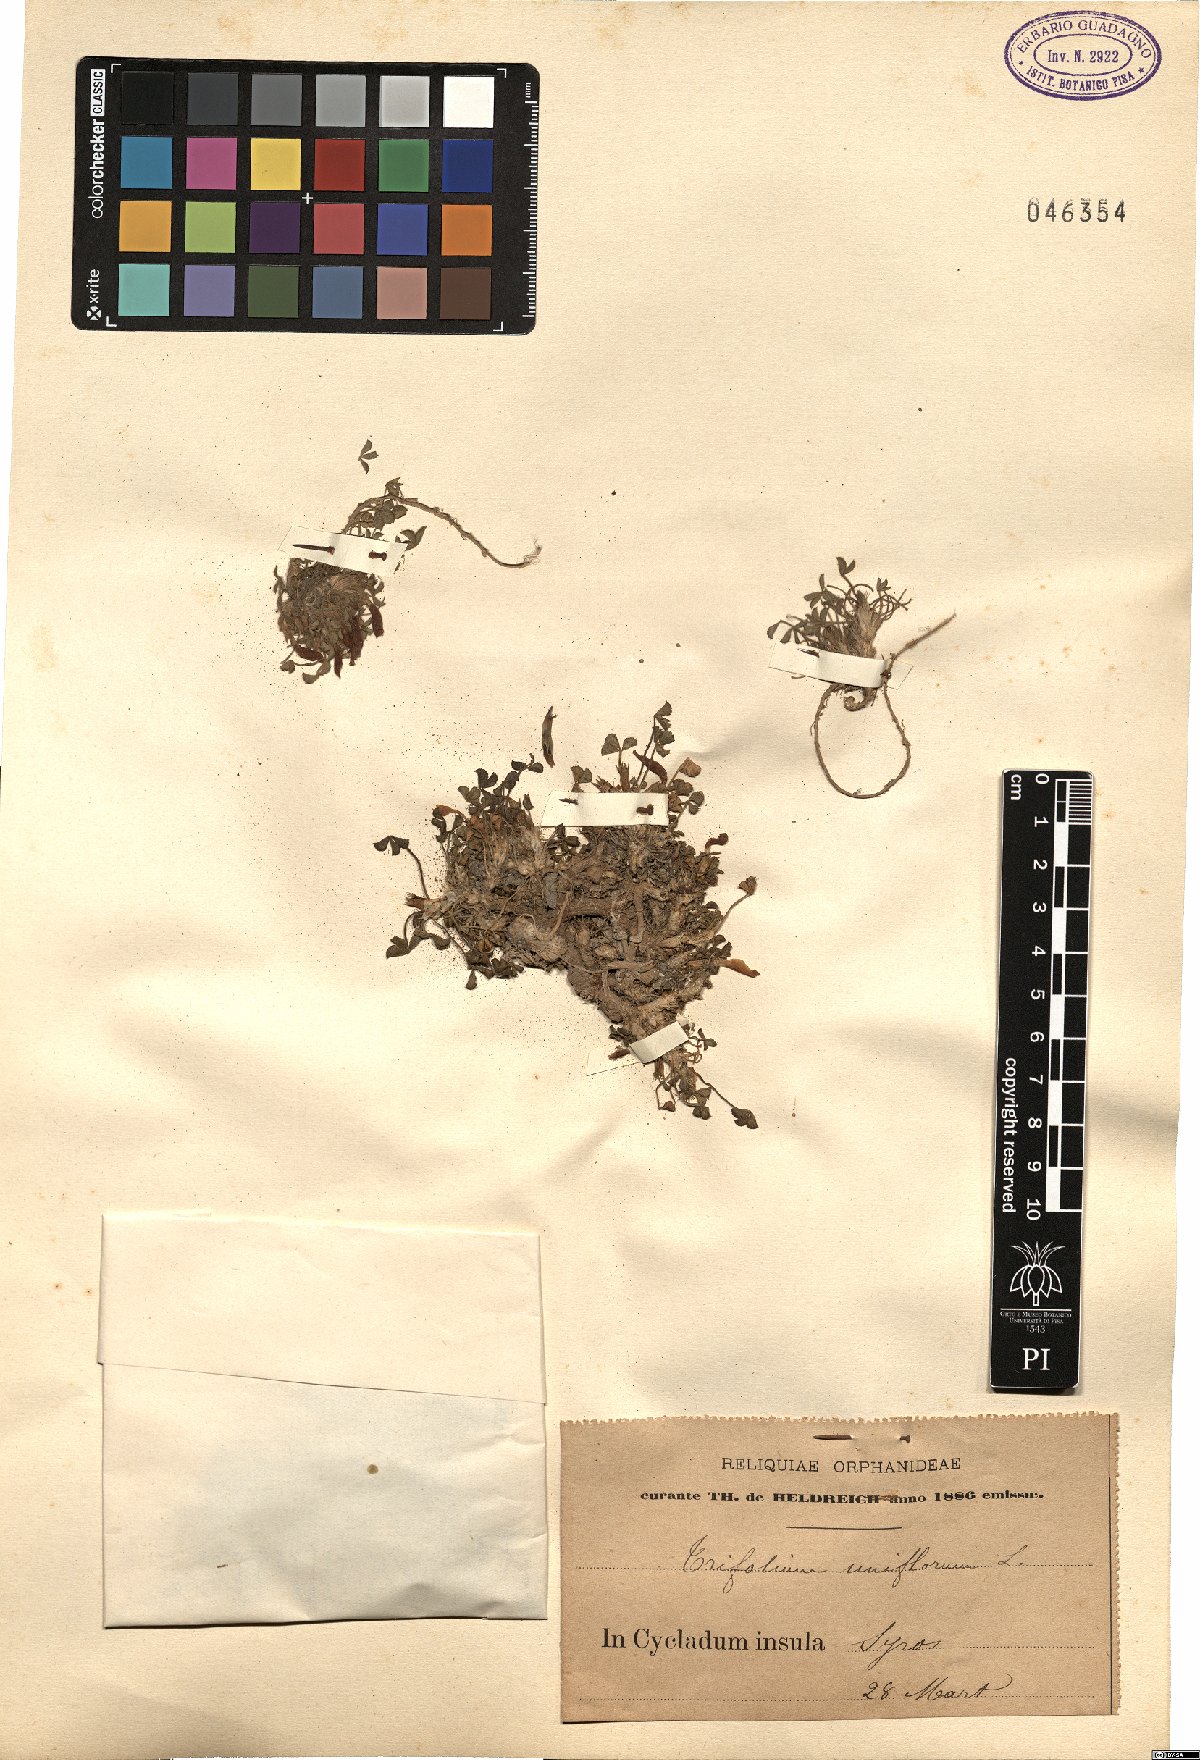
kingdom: Plantae
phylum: Tracheophyta
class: Magnoliopsida
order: Fabales
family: Fabaceae
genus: Trifolium
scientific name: Trifolium uniflorum
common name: One-flower clover
